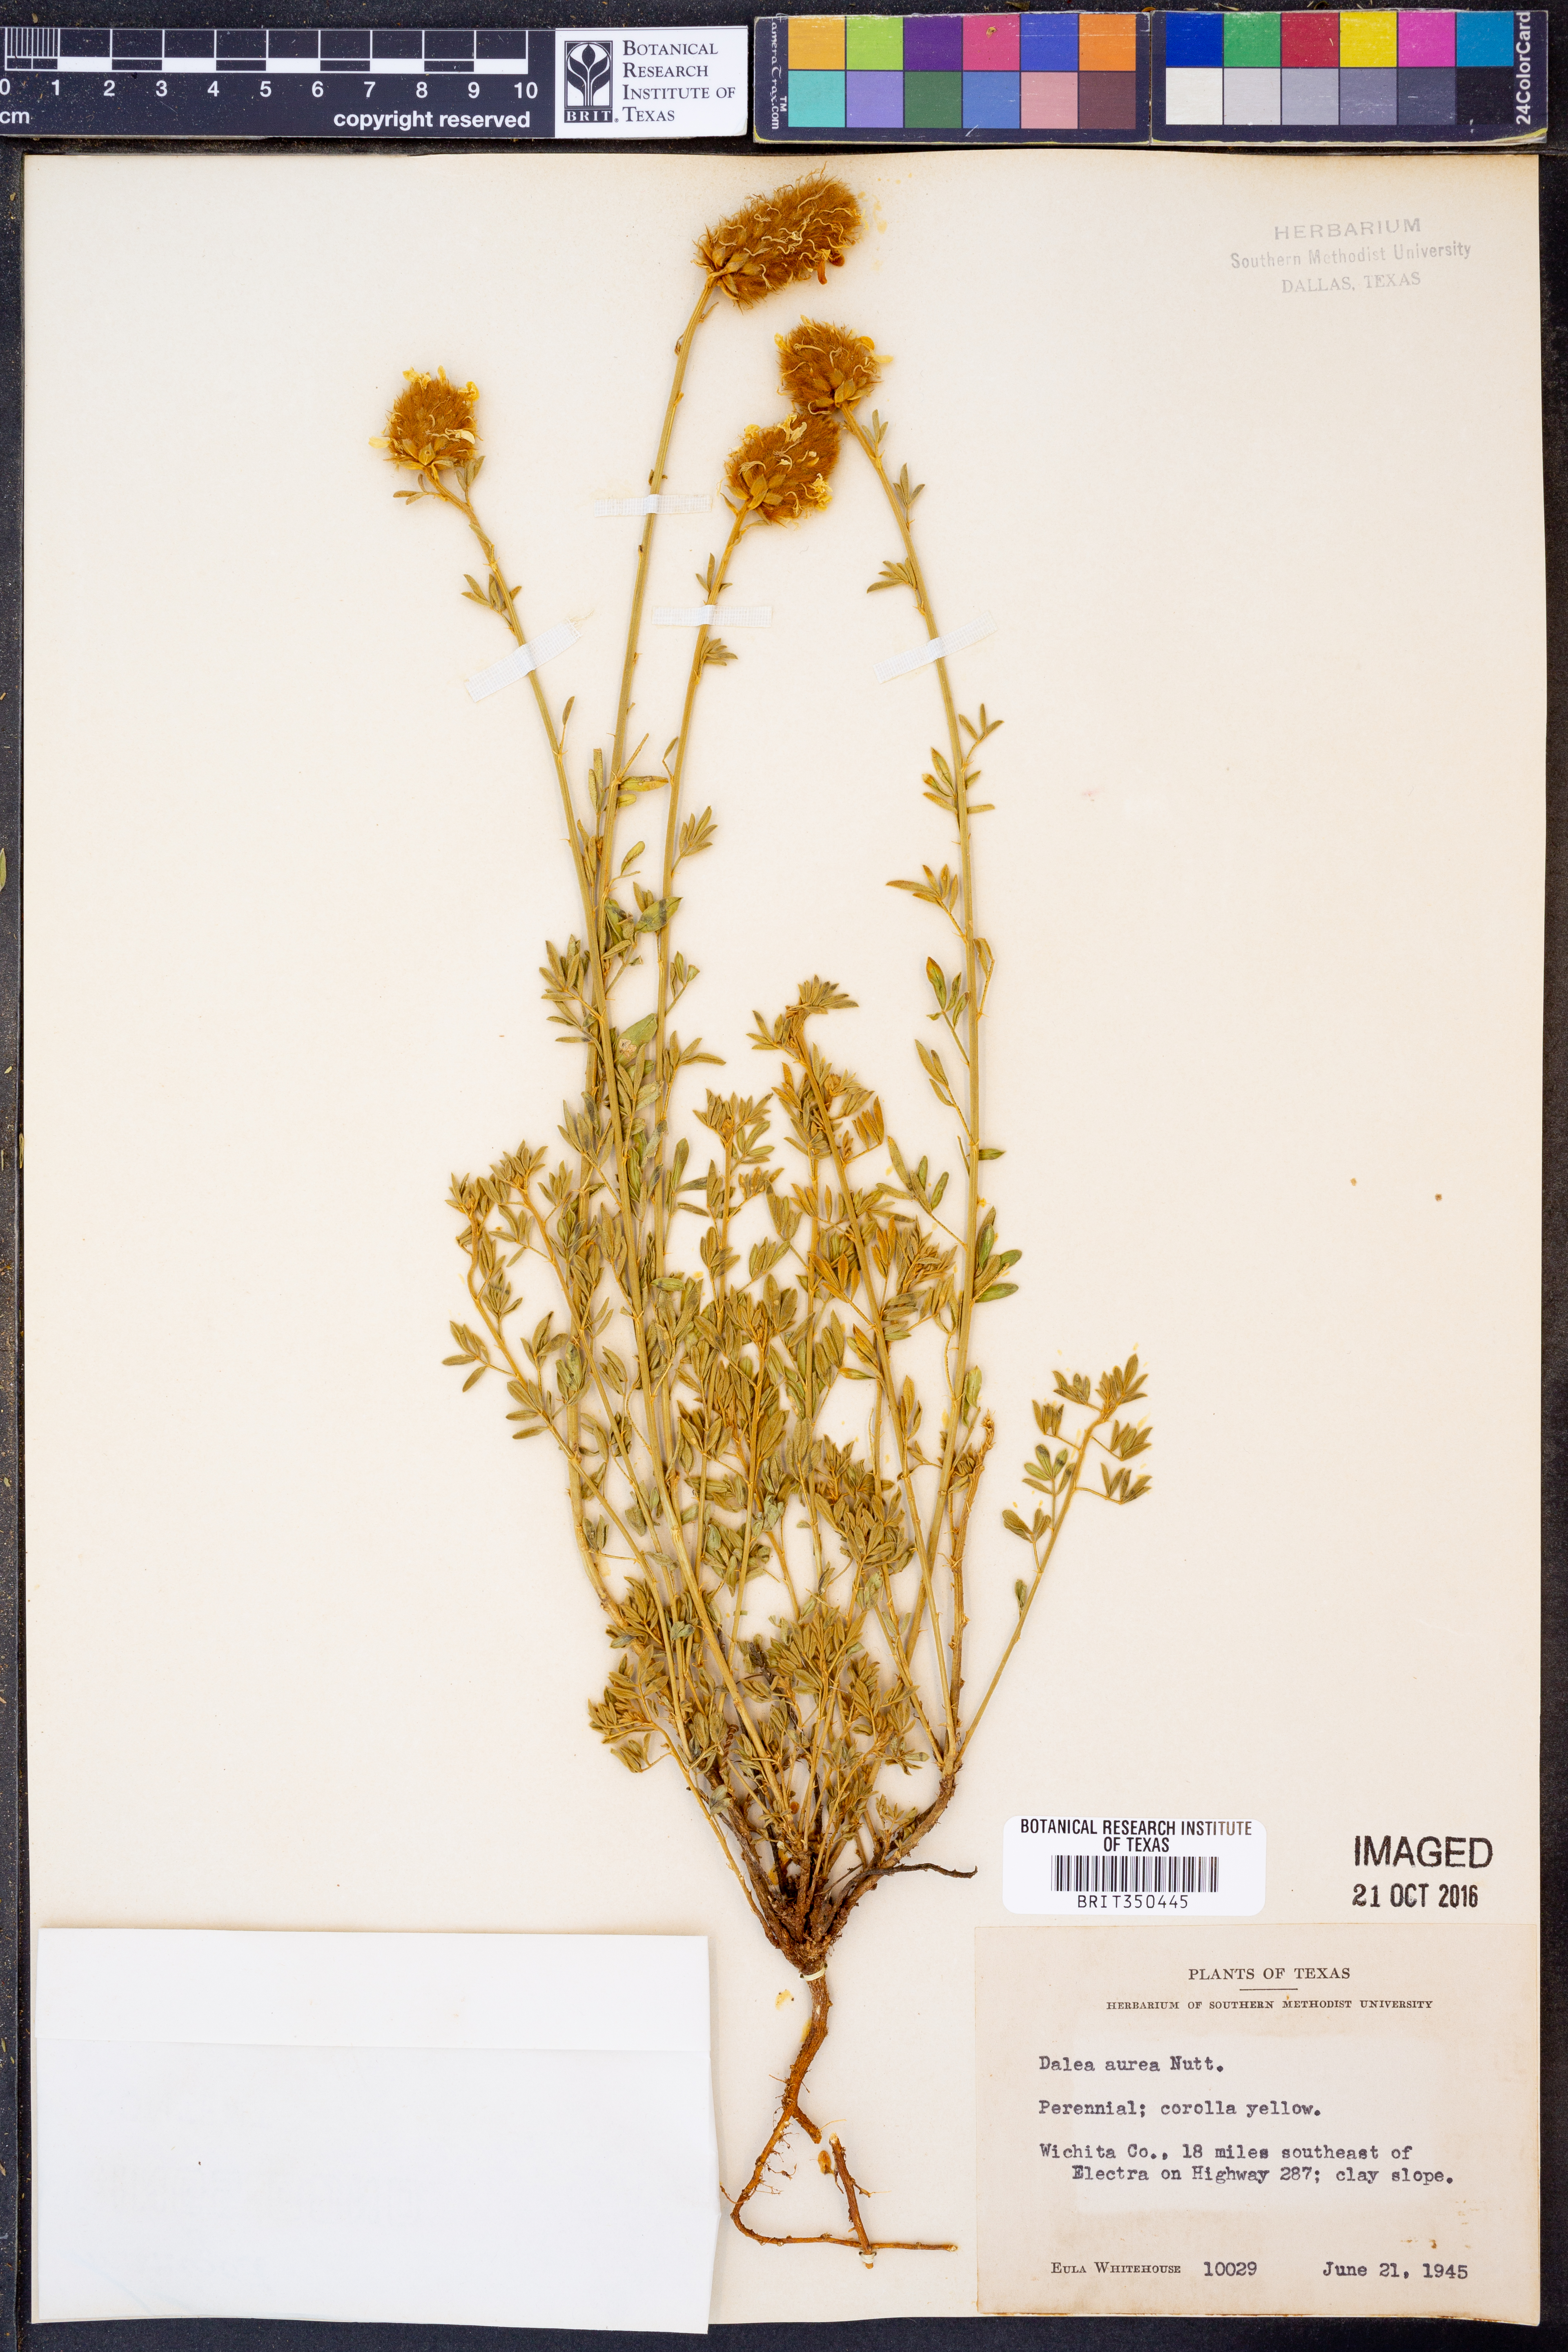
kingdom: Plantae
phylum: Tracheophyta
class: Magnoliopsida
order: Fabales
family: Fabaceae
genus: Dalea
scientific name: Dalea aurea
